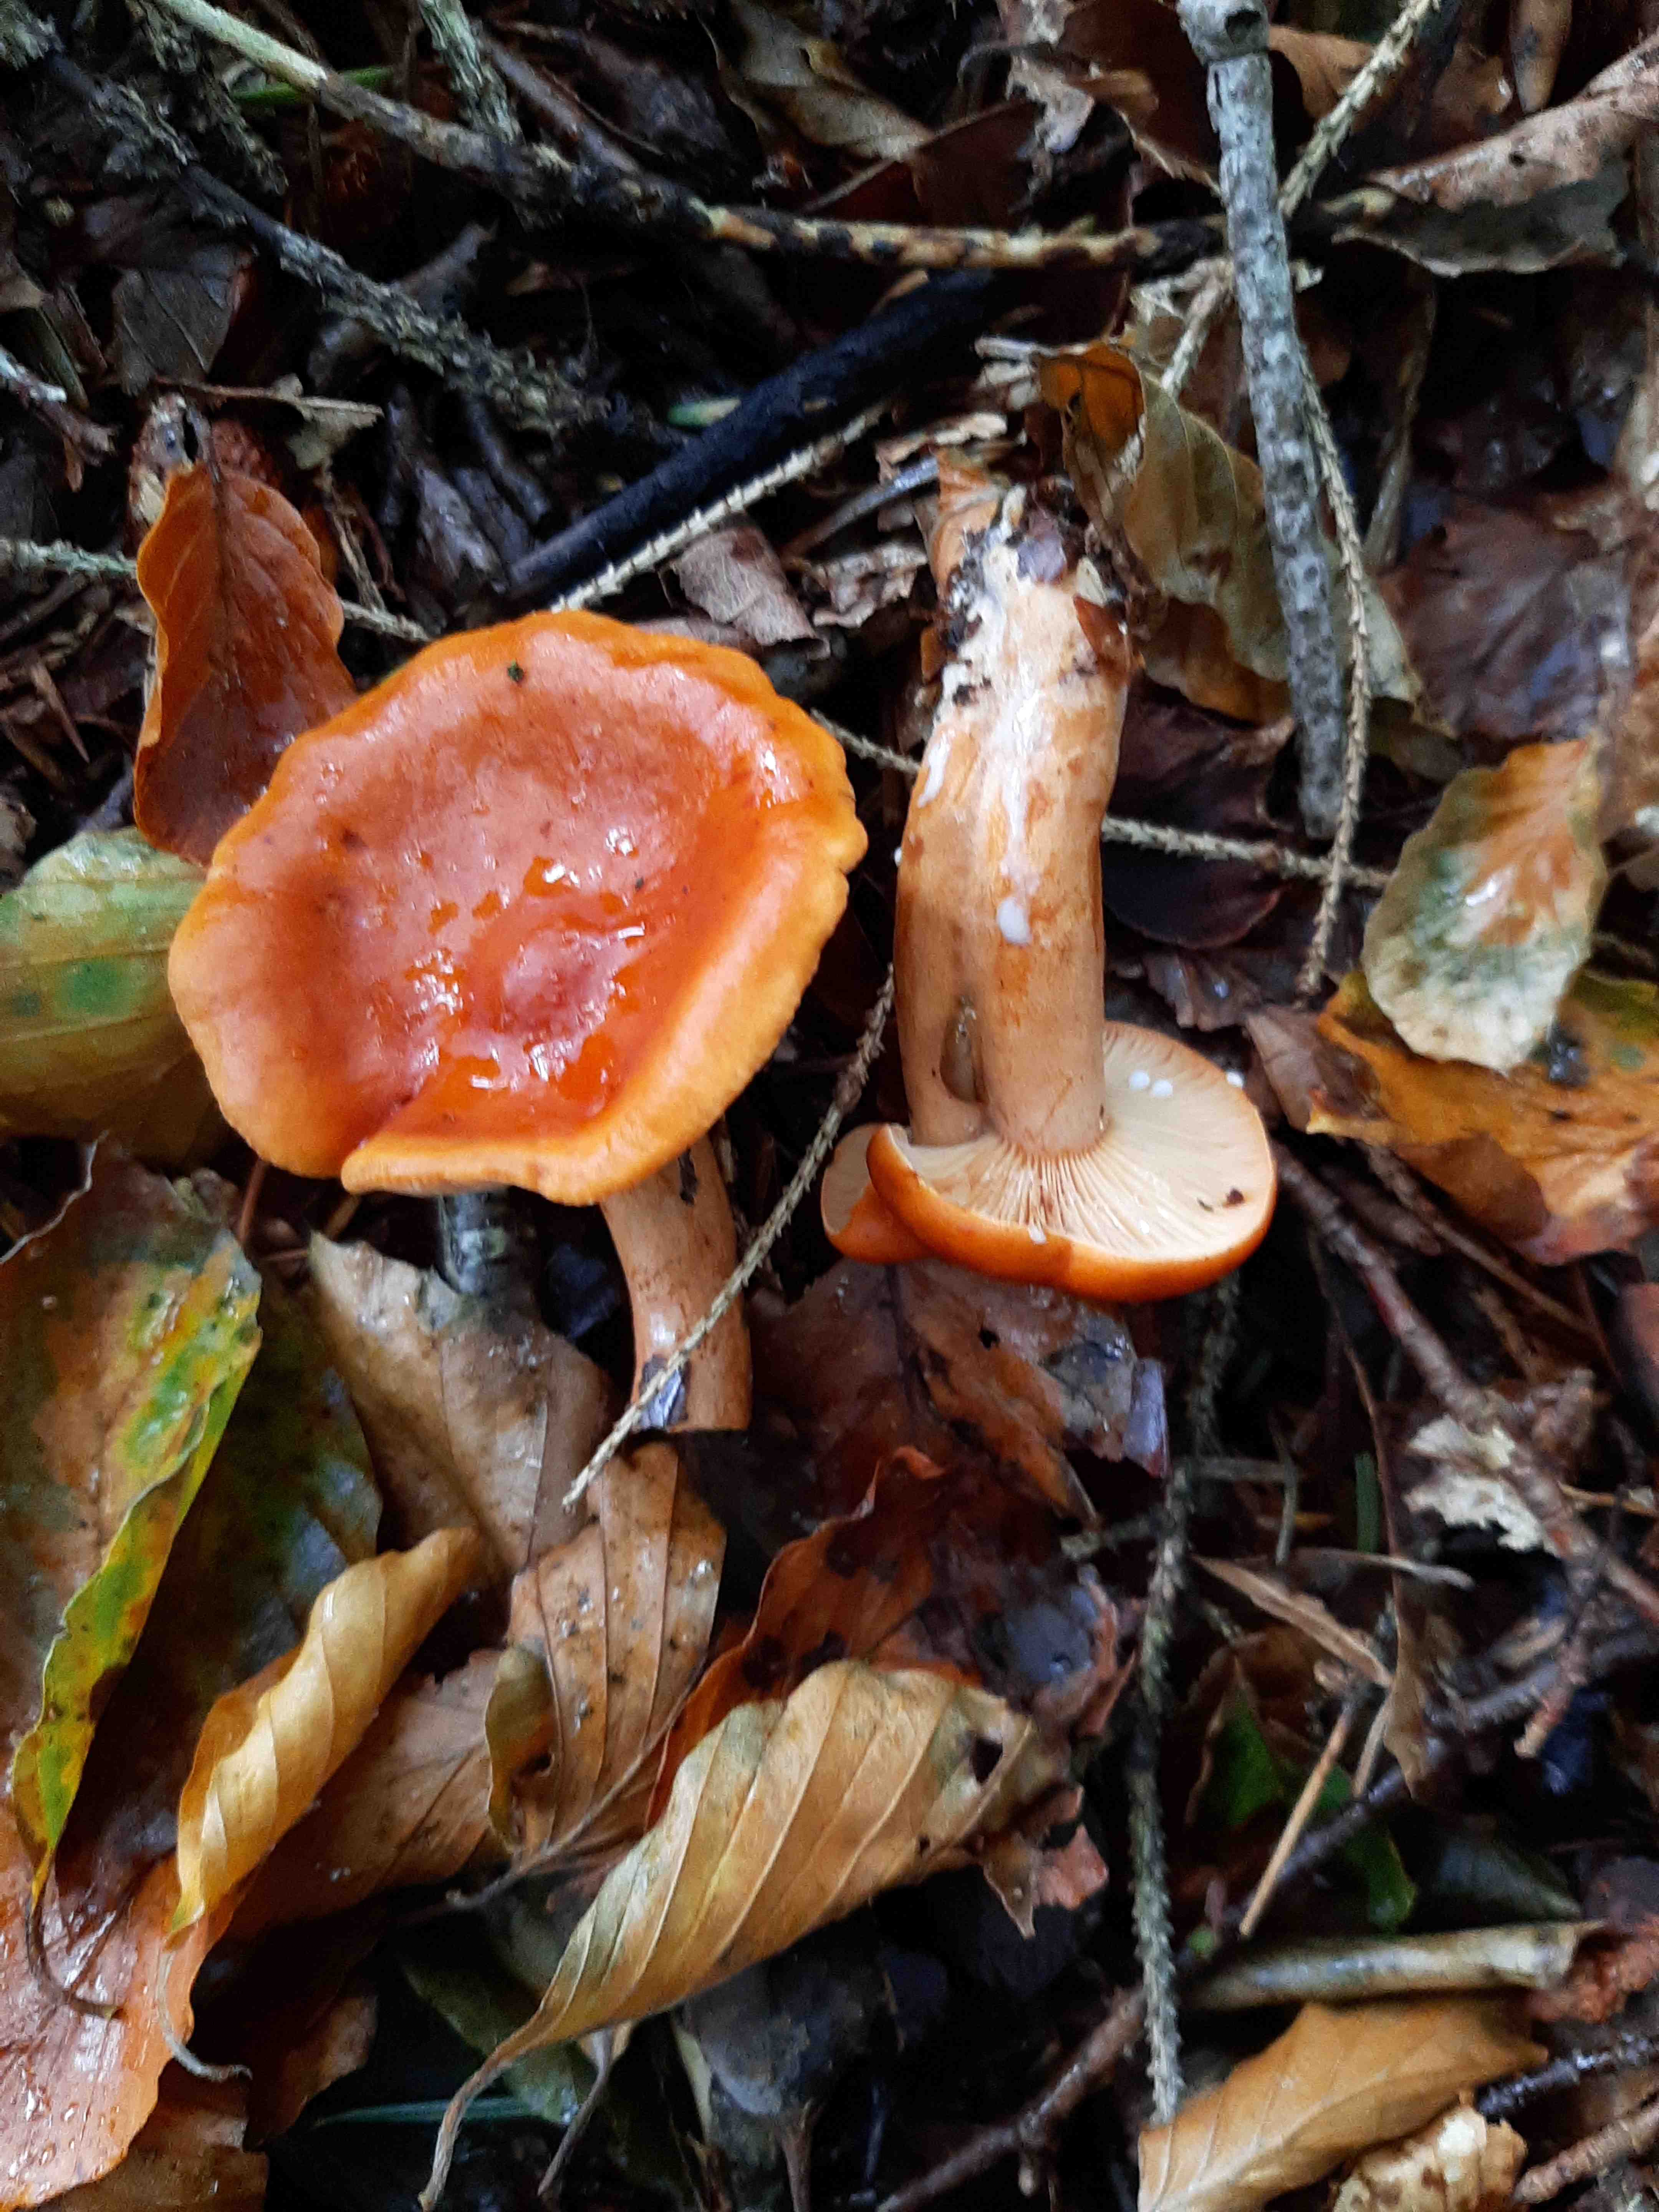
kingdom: Fungi
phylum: Basidiomycota
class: Agaricomycetes
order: Russulales
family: Russulaceae
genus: Lactarius
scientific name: Lactarius fulvissimus
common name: ræve-mælkehat
